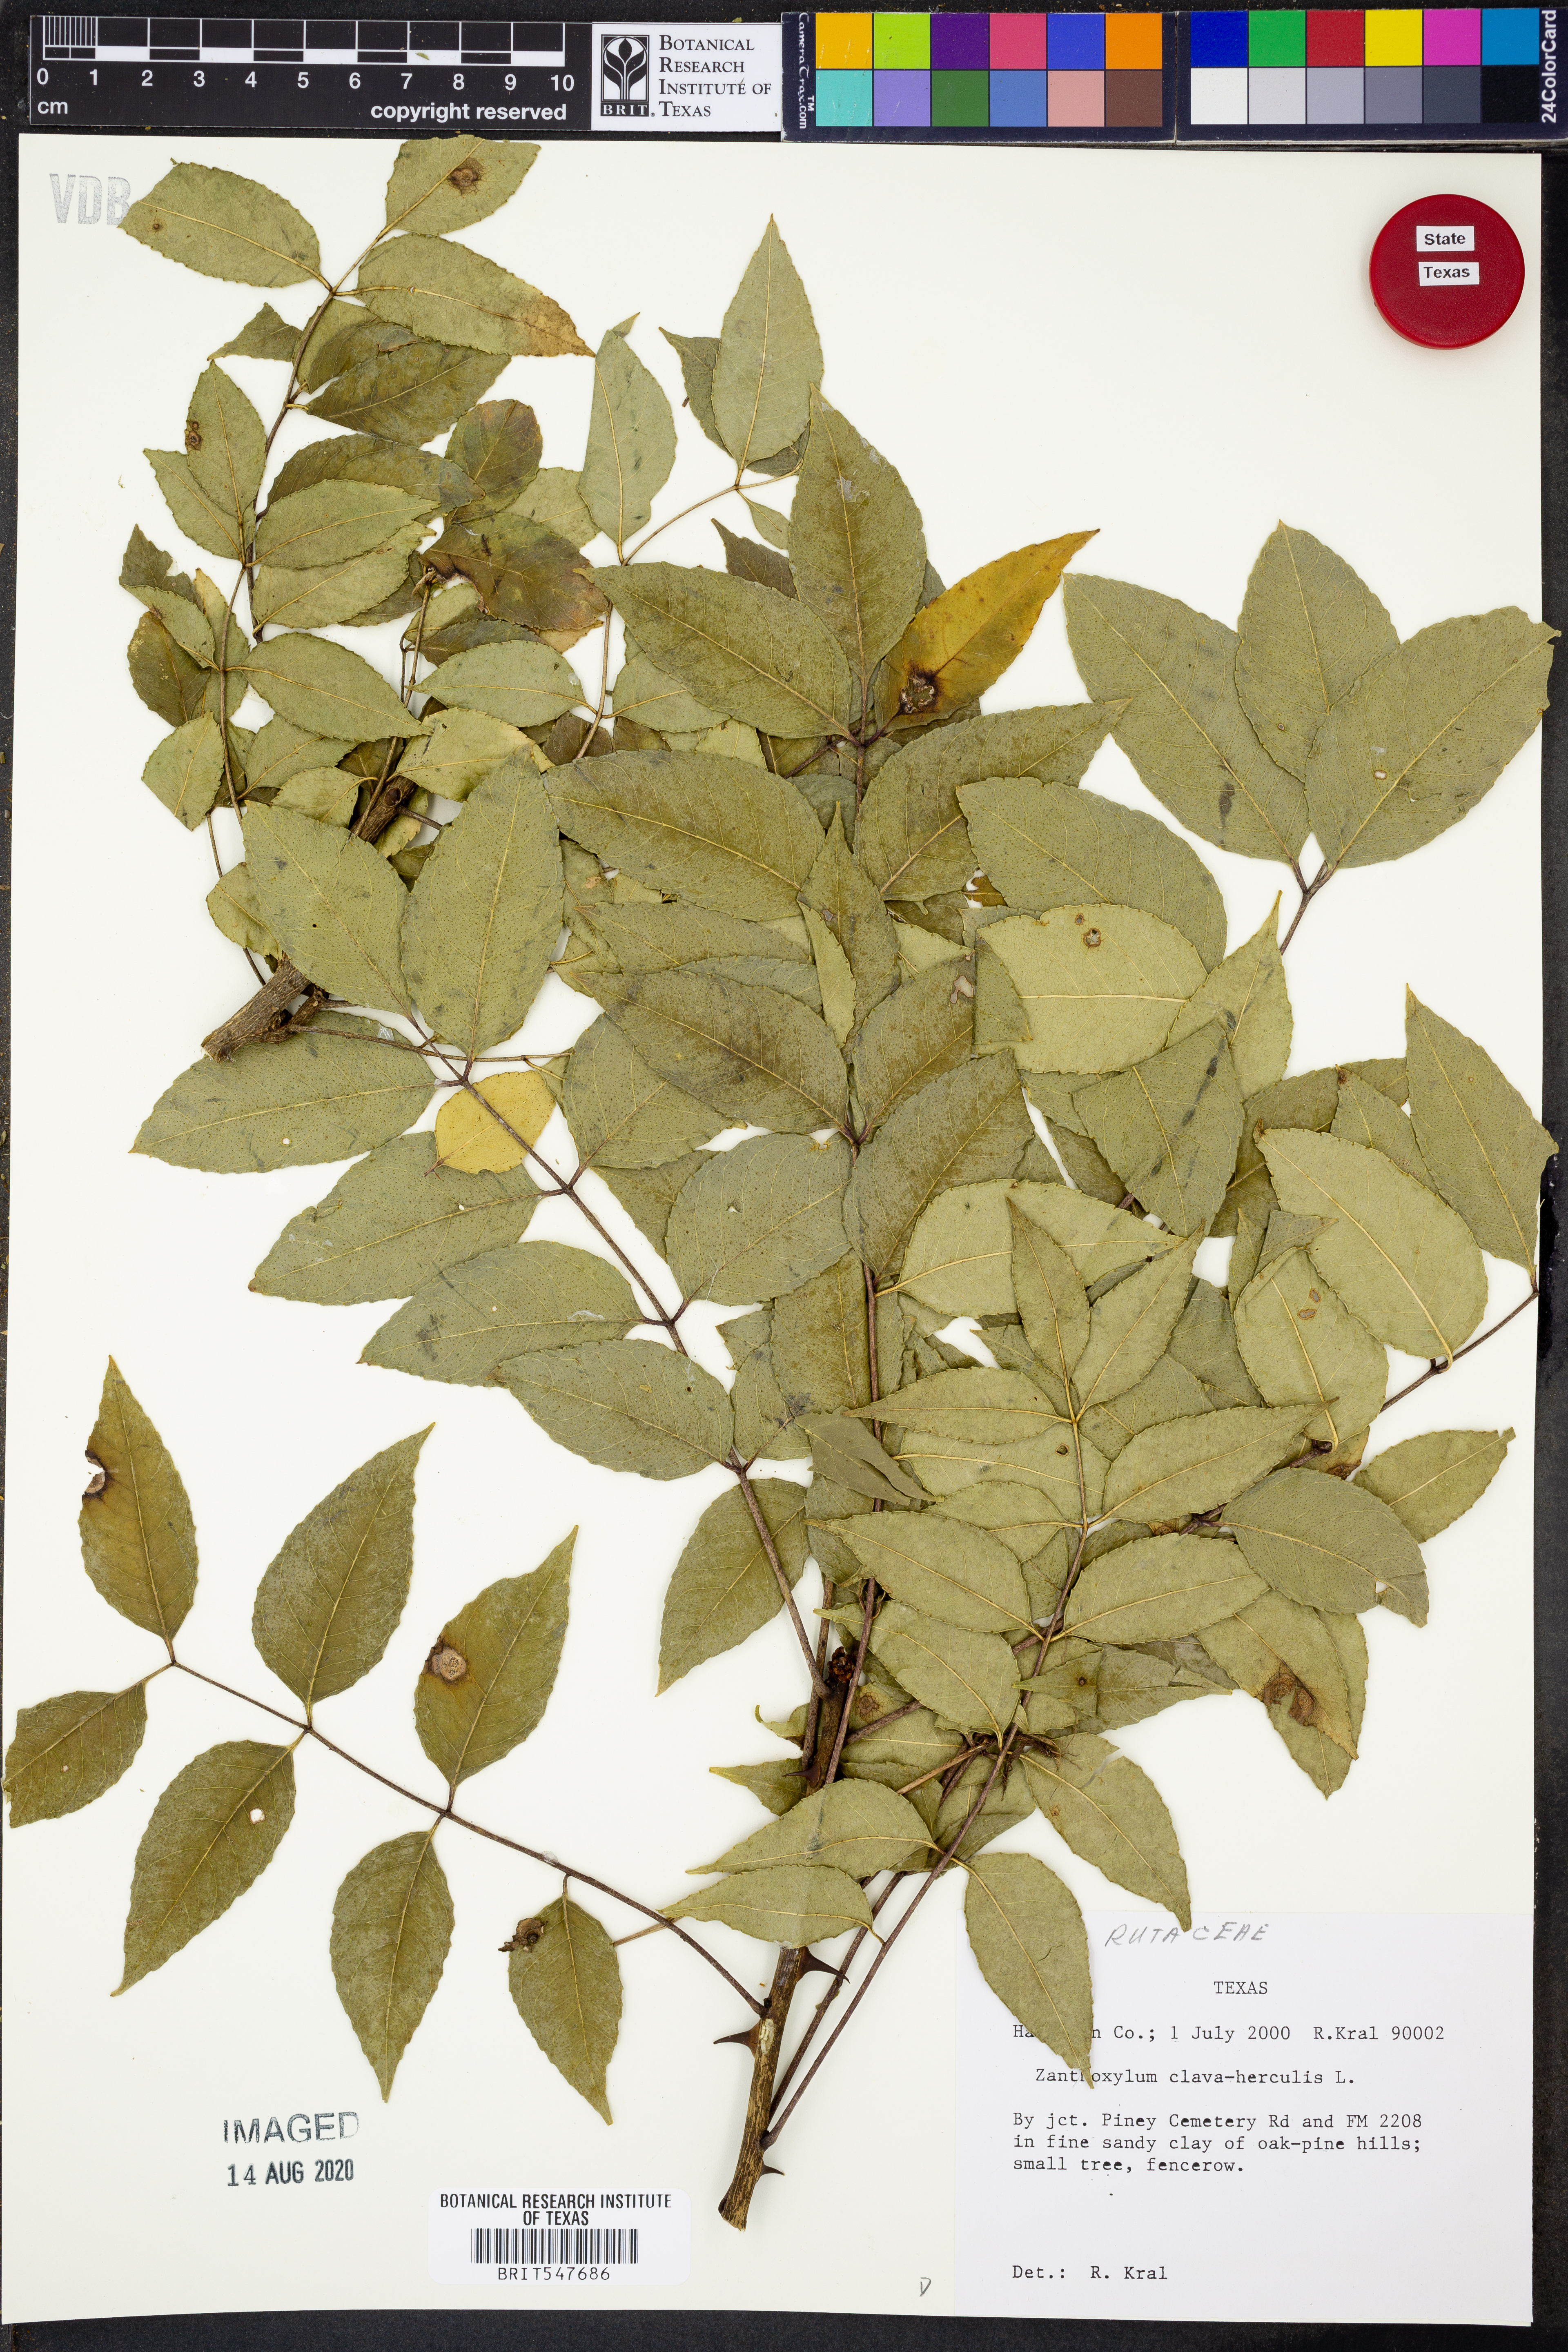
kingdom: Plantae
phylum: Tracheophyta
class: Magnoliopsida
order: Sapindales
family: Rutaceae
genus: Zanthoxylum
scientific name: Zanthoxylum avicennae
